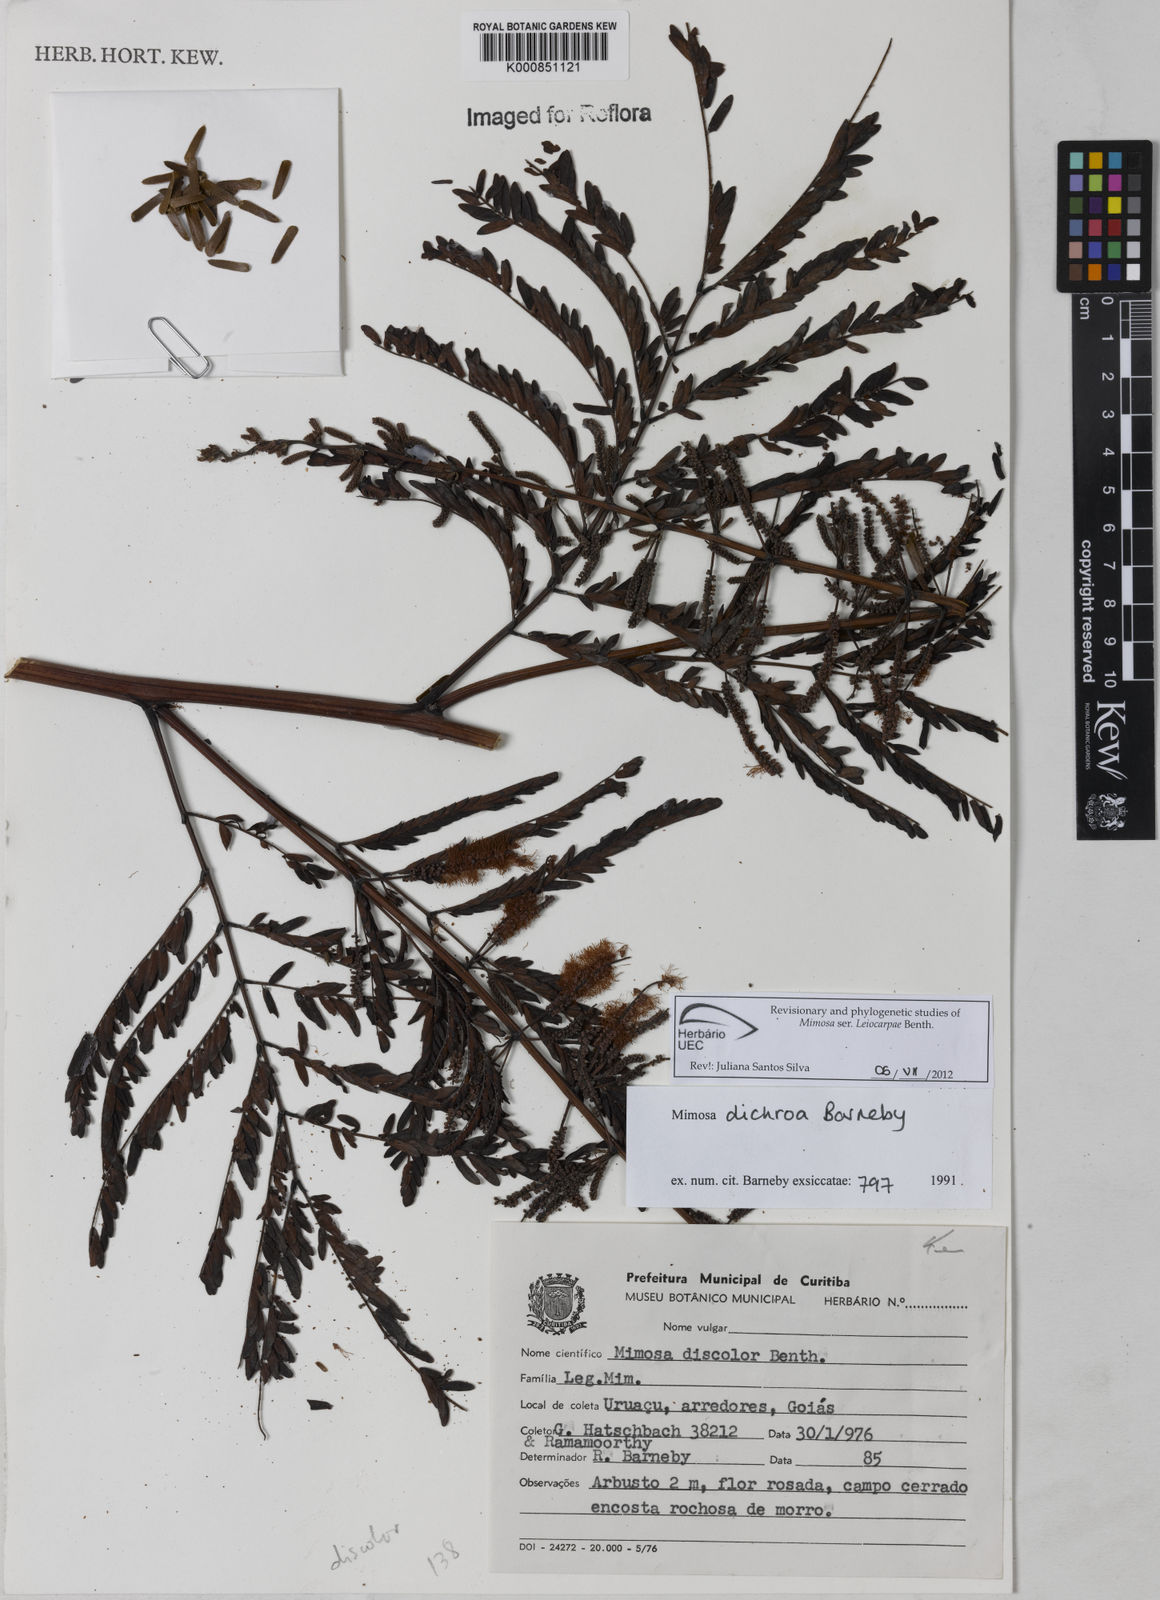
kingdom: Plantae
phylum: Tracheophyta
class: Magnoliopsida
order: Fabales
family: Fabaceae
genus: Mimosa
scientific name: Mimosa dichroa
